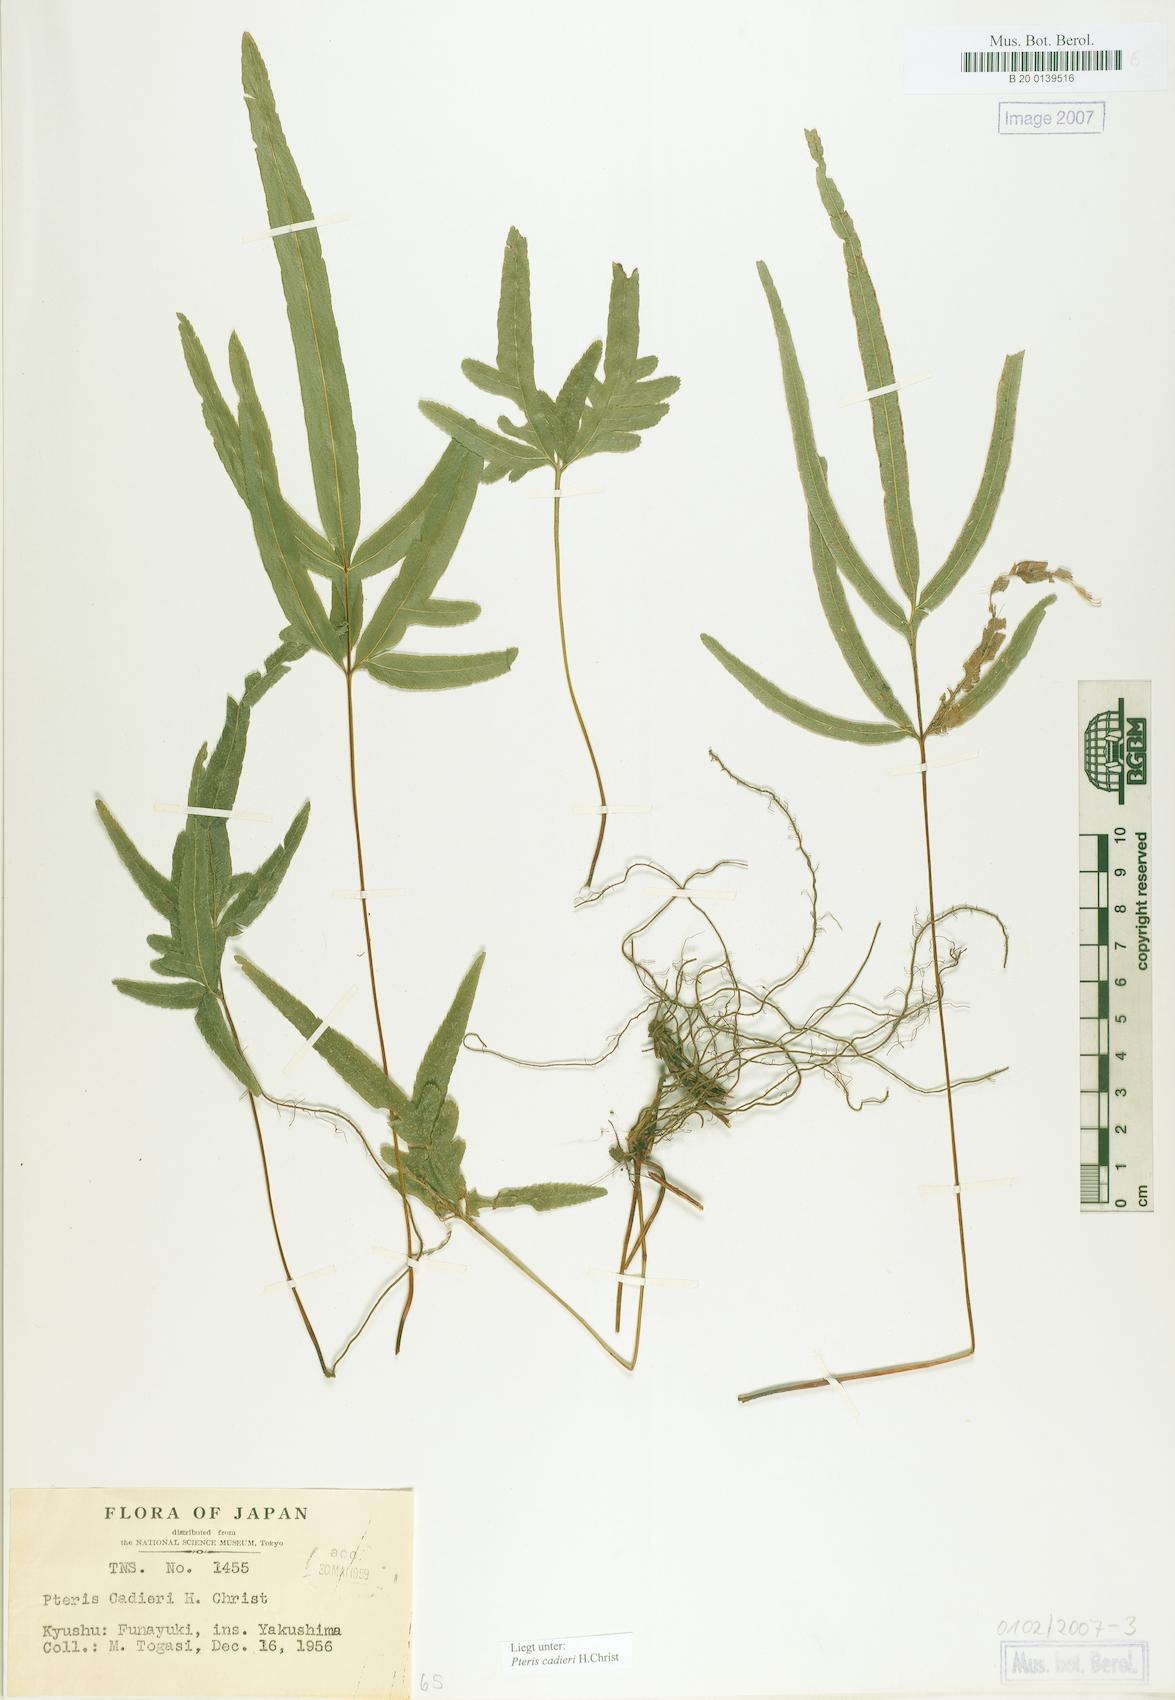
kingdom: Plantae
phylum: Tracheophyta
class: Polypodiopsida
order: Polypodiales
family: Pteridaceae
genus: Pteris
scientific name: Pteris cadieri
